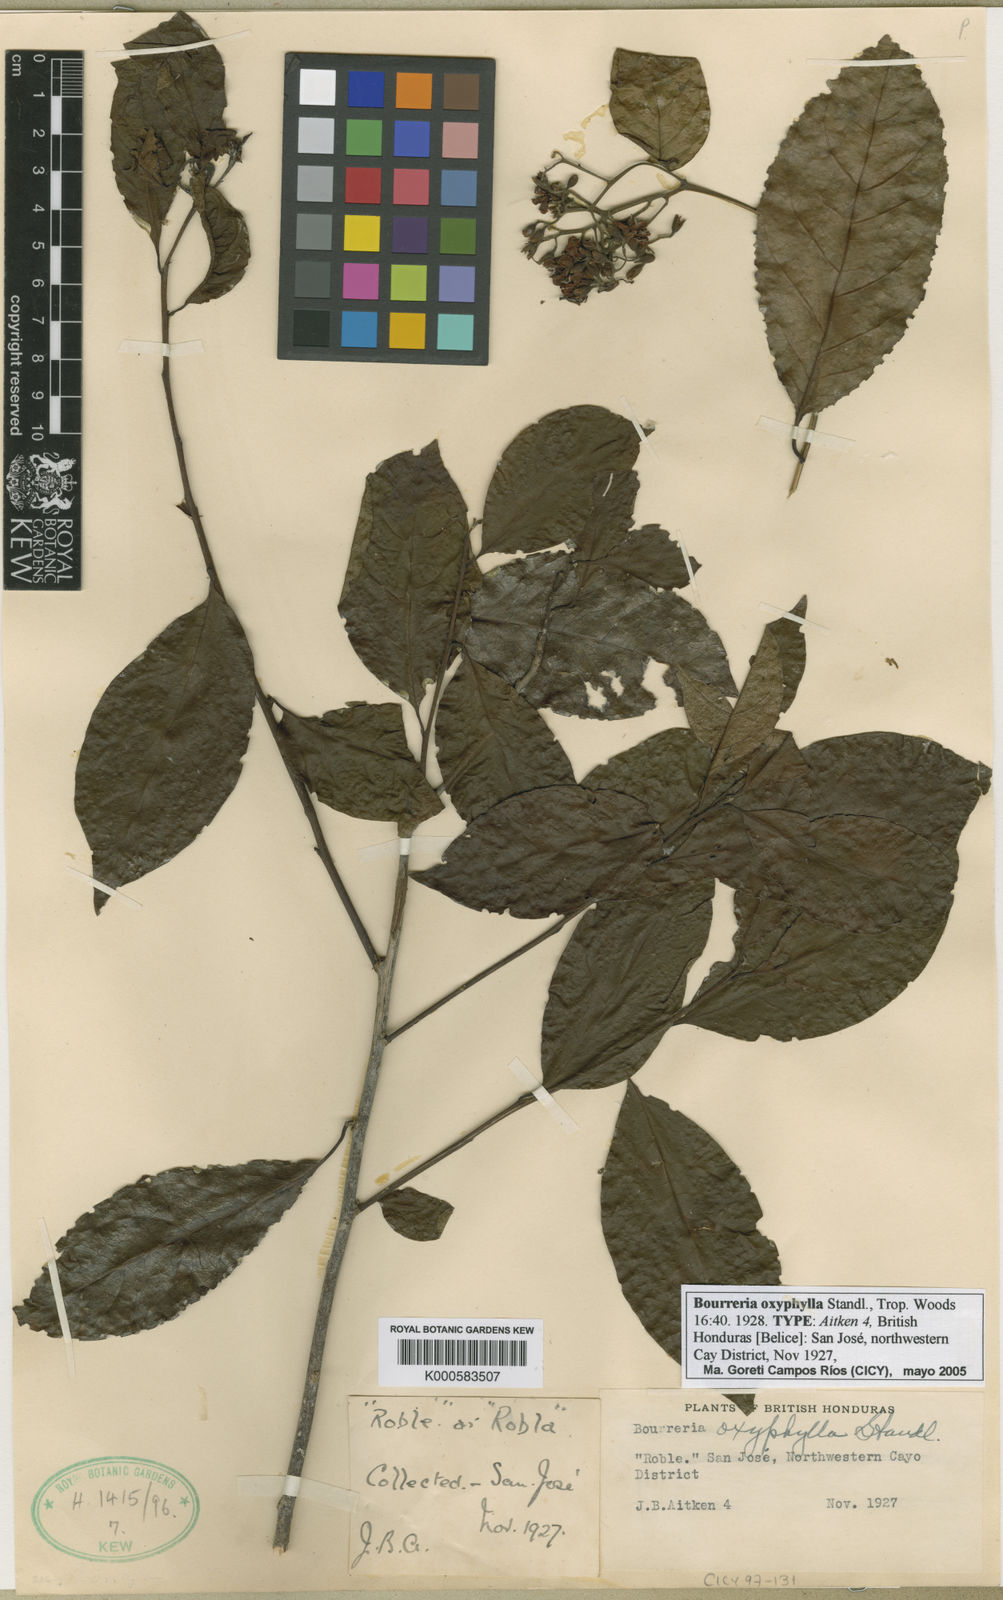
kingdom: Plantae
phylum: Tracheophyta
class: Magnoliopsida
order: Boraginales
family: Ehretiaceae
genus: Bourreria
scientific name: Bourreria mollis
